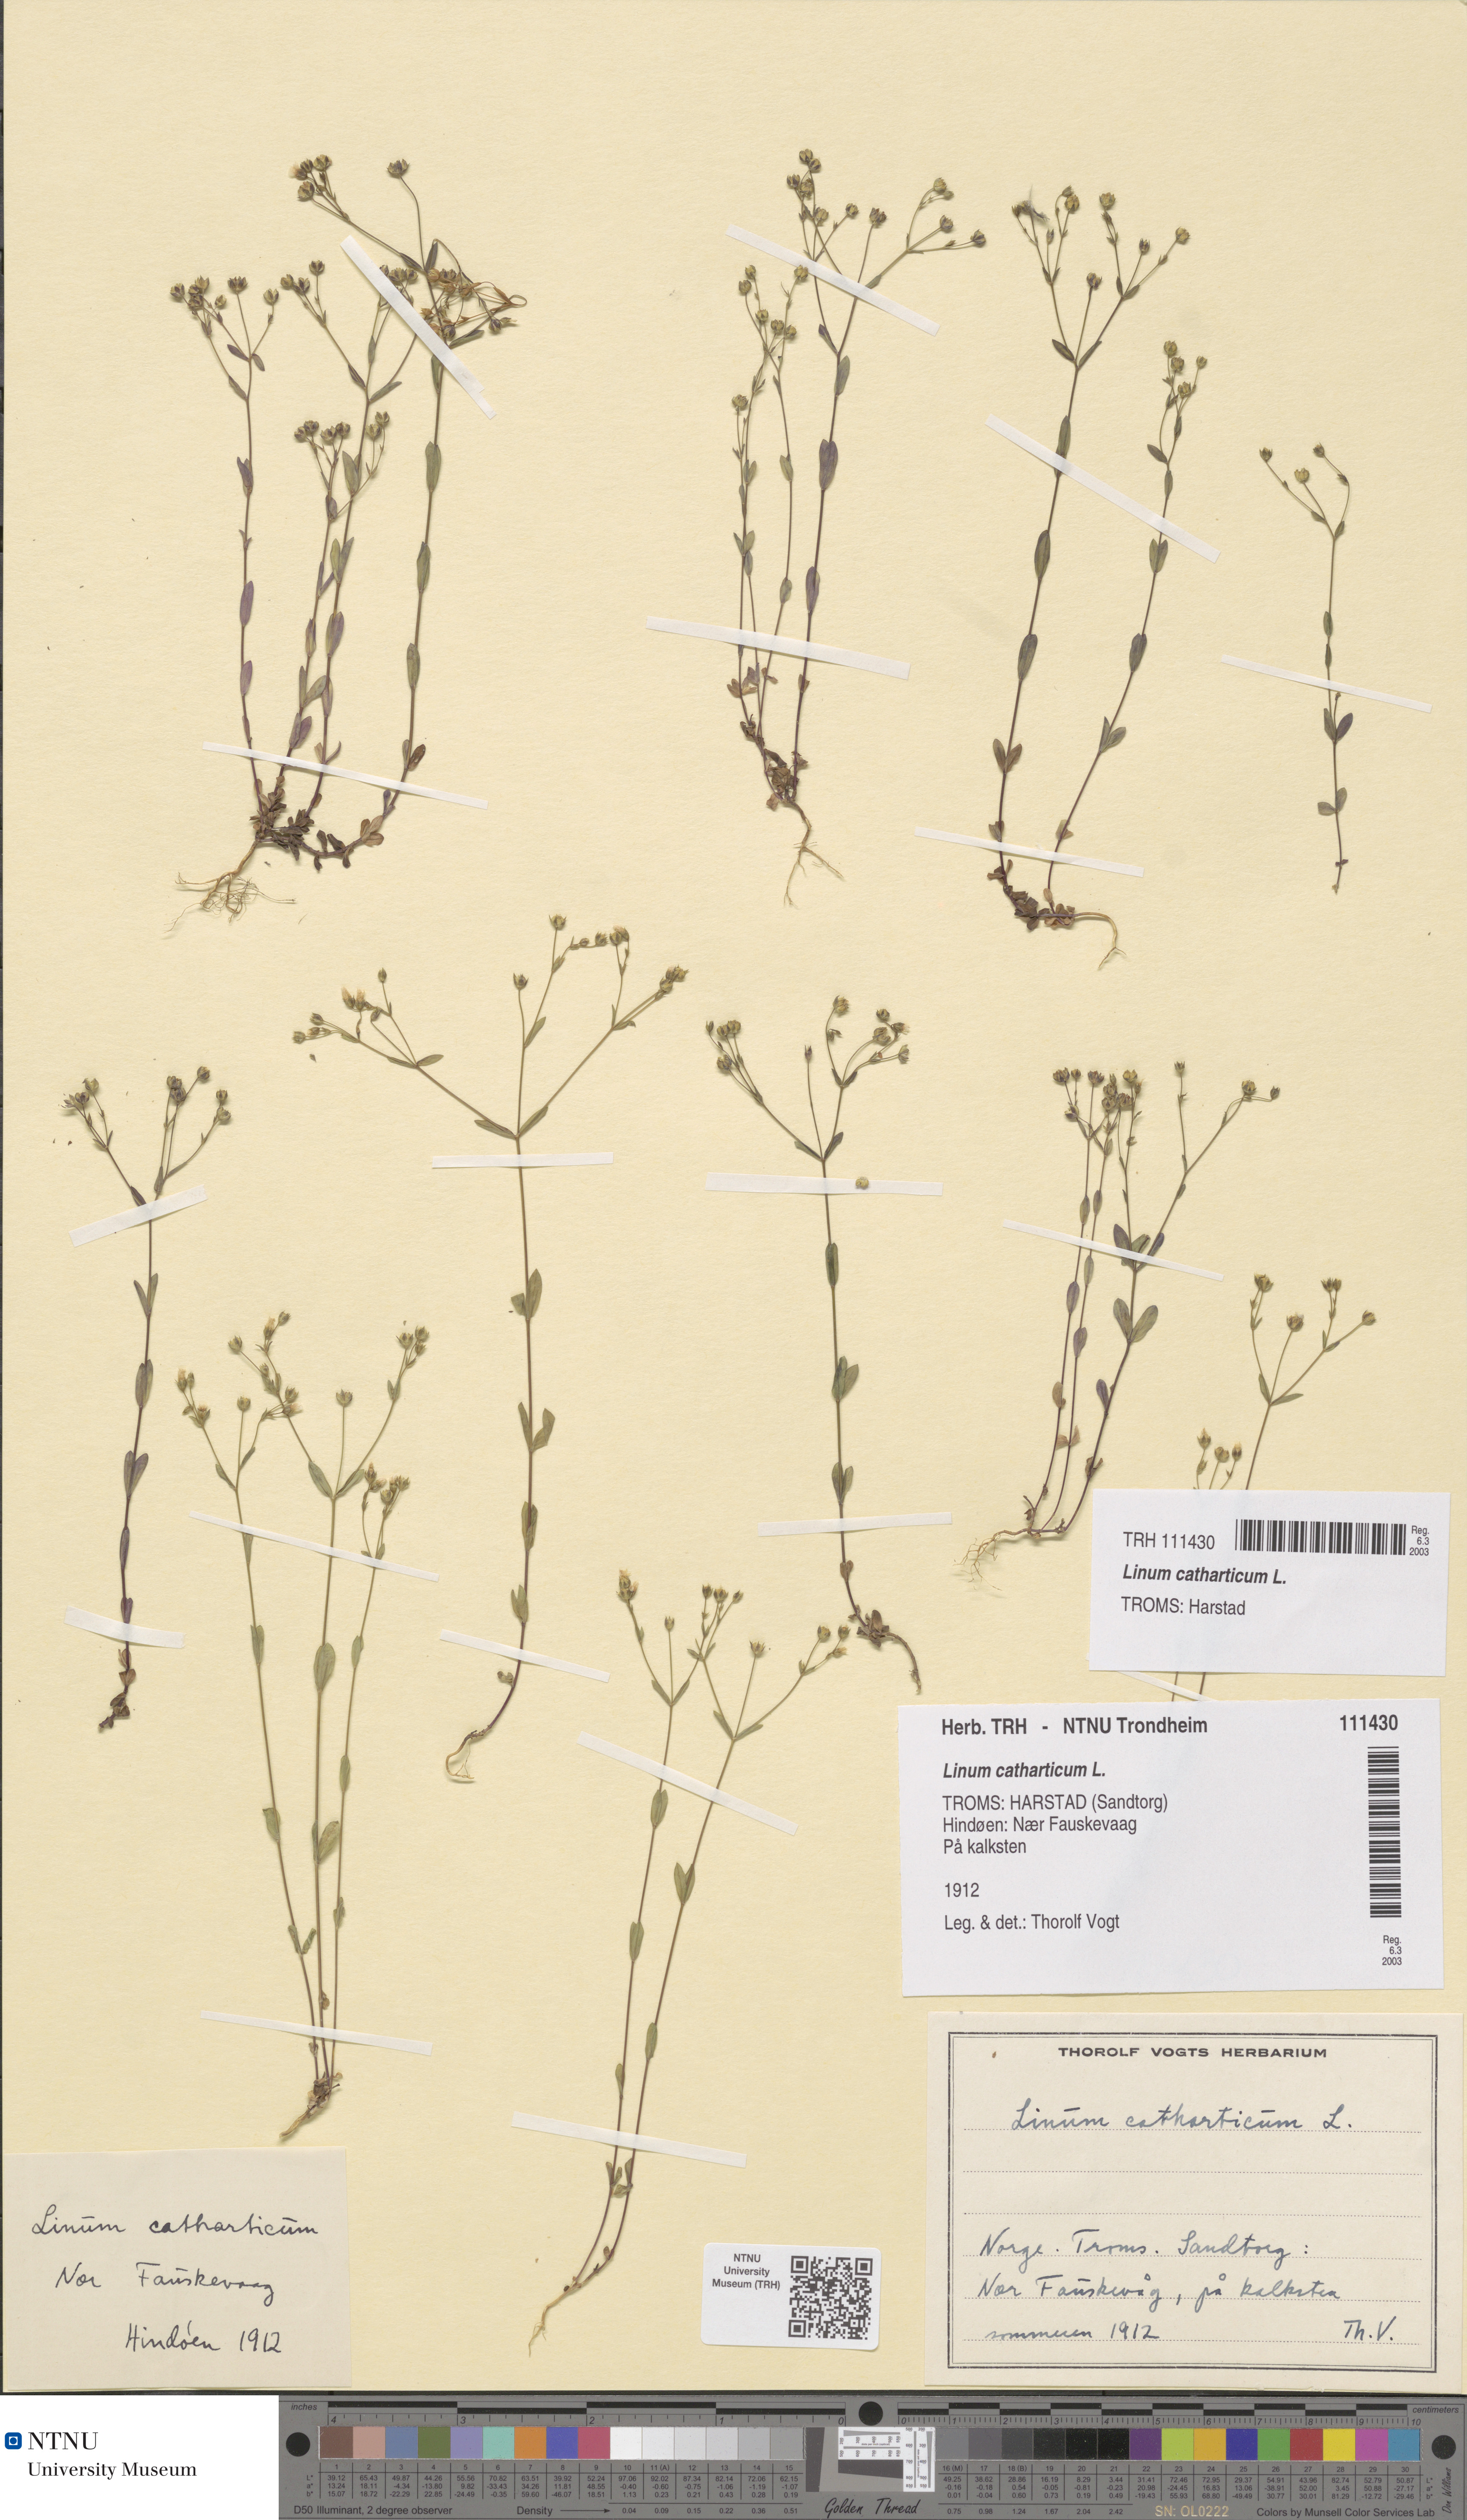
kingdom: Plantae
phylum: Tracheophyta
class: Magnoliopsida
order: Malpighiales
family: Linaceae
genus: Linum
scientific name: Linum catharticum
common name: Fairy flax
